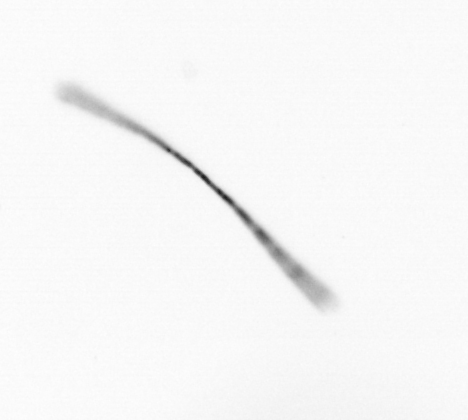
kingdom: Chromista
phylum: Ochrophyta
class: Bacillariophyceae
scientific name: Bacillariophyceae
